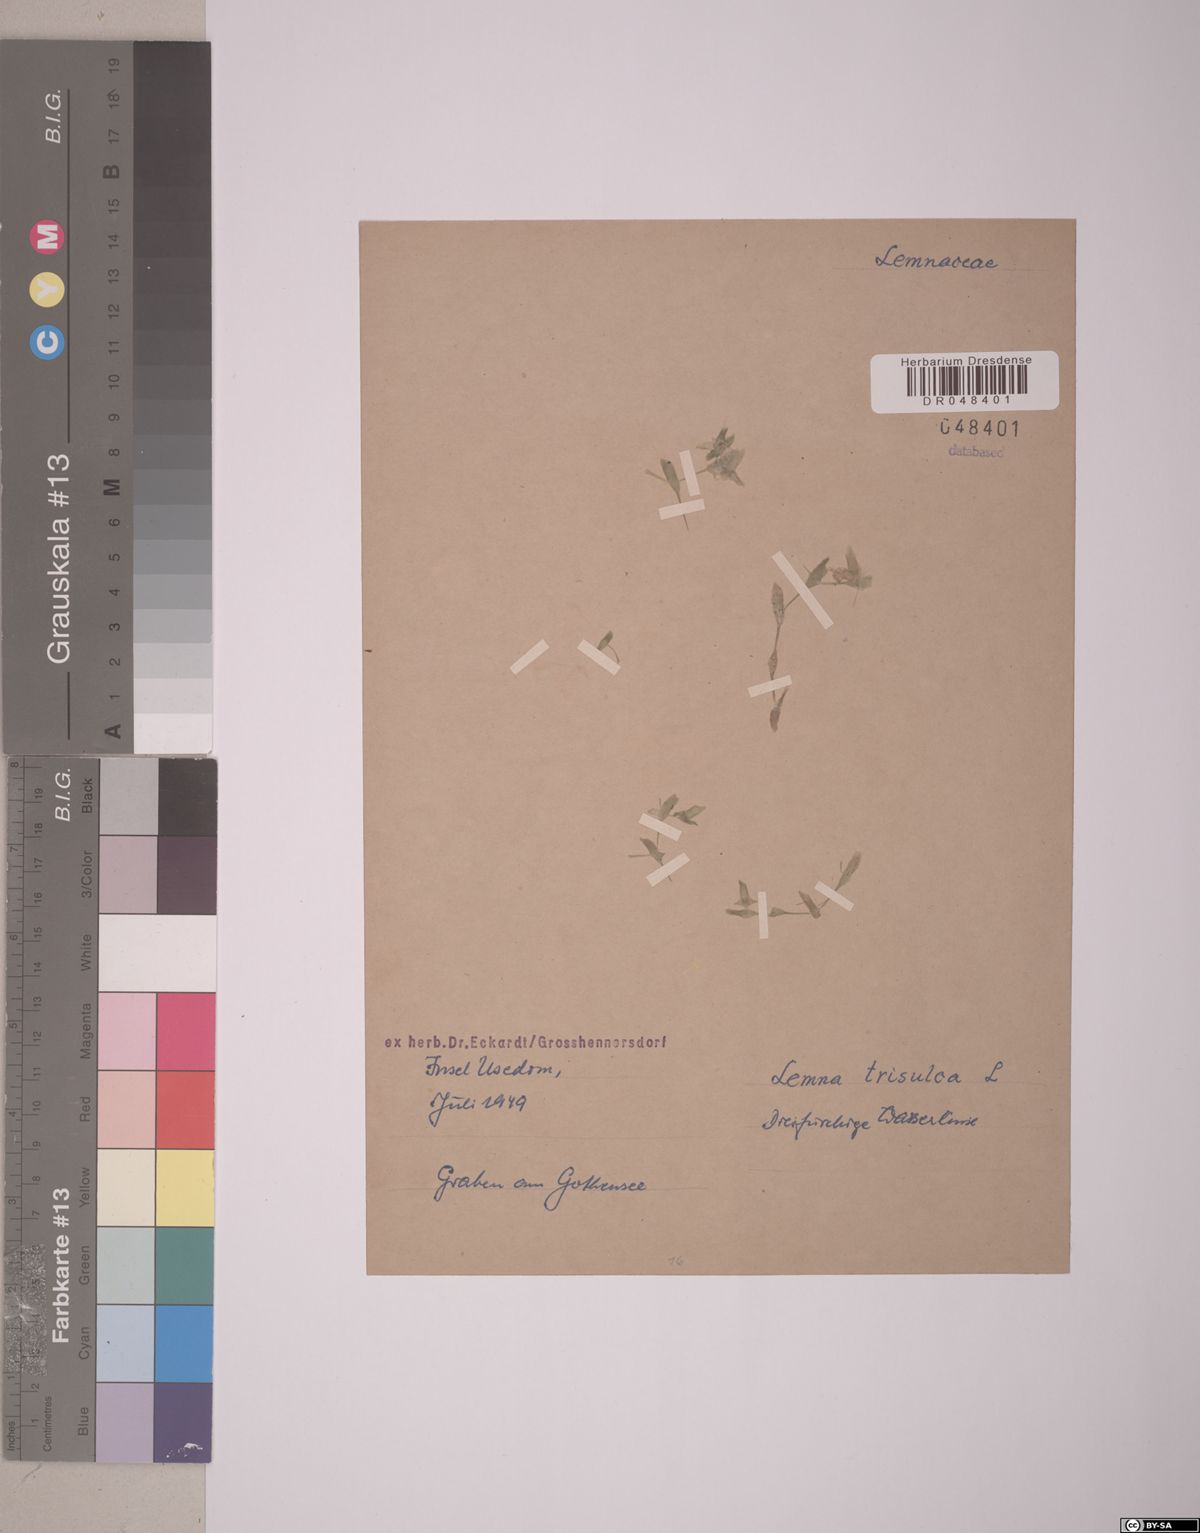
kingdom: Plantae
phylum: Tracheophyta
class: Liliopsida
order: Alismatales
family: Araceae
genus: Lemna
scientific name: Lemna trisulca
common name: Ivy-leaved duckweed
